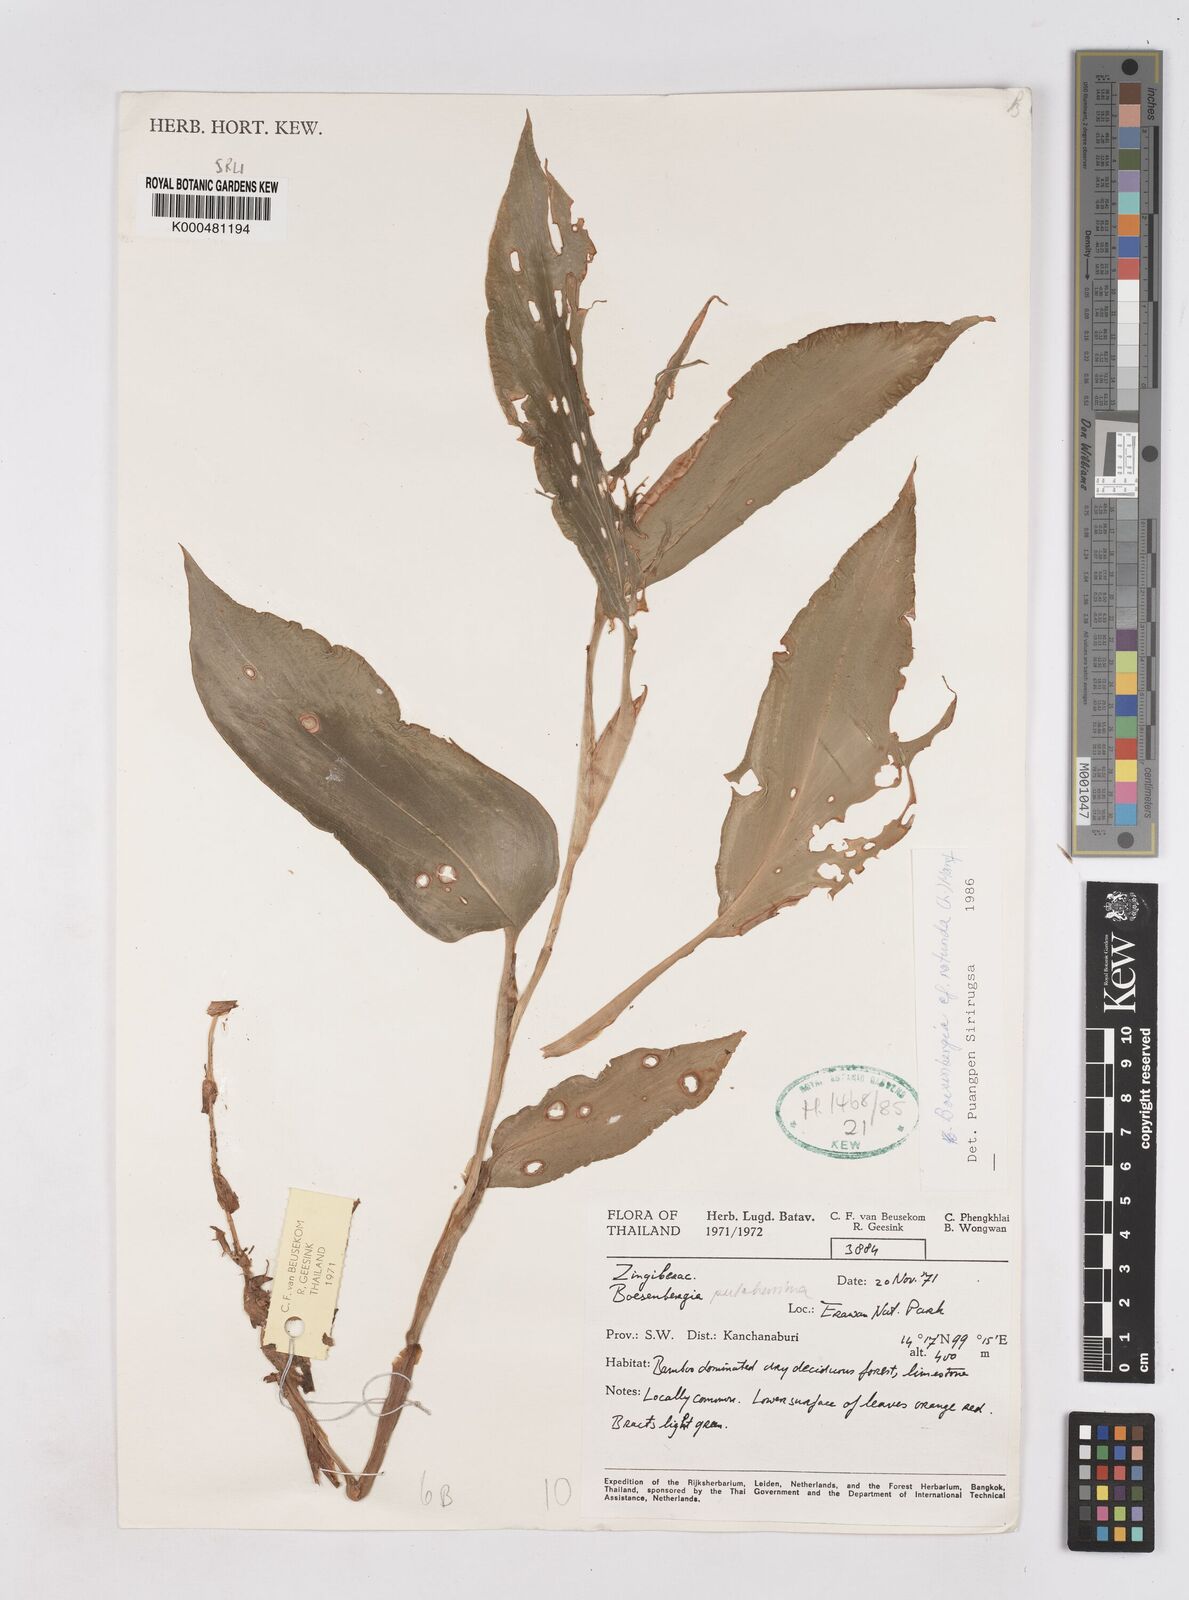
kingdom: Plantae
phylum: Tracheophyta
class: Liliopsida
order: Zingiberales
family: Zingiberaceae
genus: Boesenbergia
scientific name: Boesenbergia rotunda
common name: Chinese ginger
